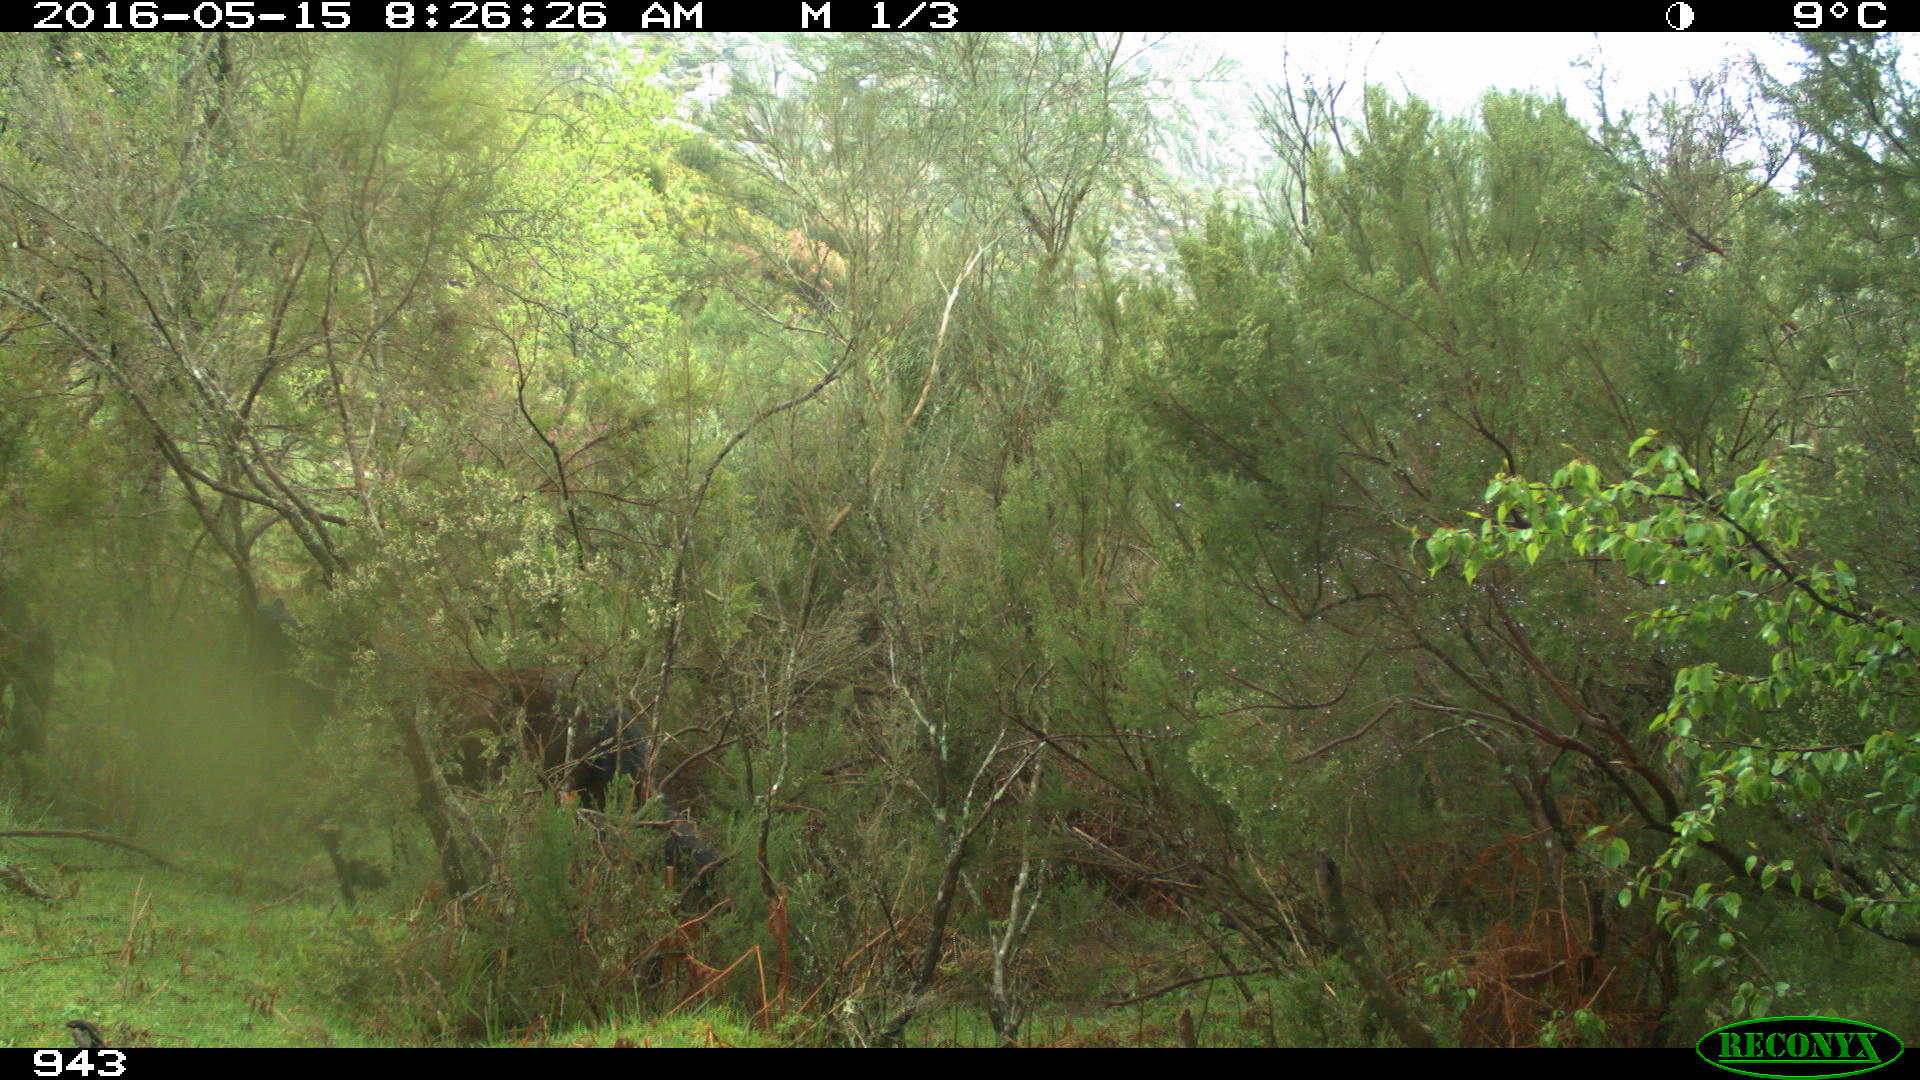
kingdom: Animalia
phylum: Chordata
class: Mammalia
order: Perissodactyla
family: Equidae
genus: Equus
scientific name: Equus caballus
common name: Horse
